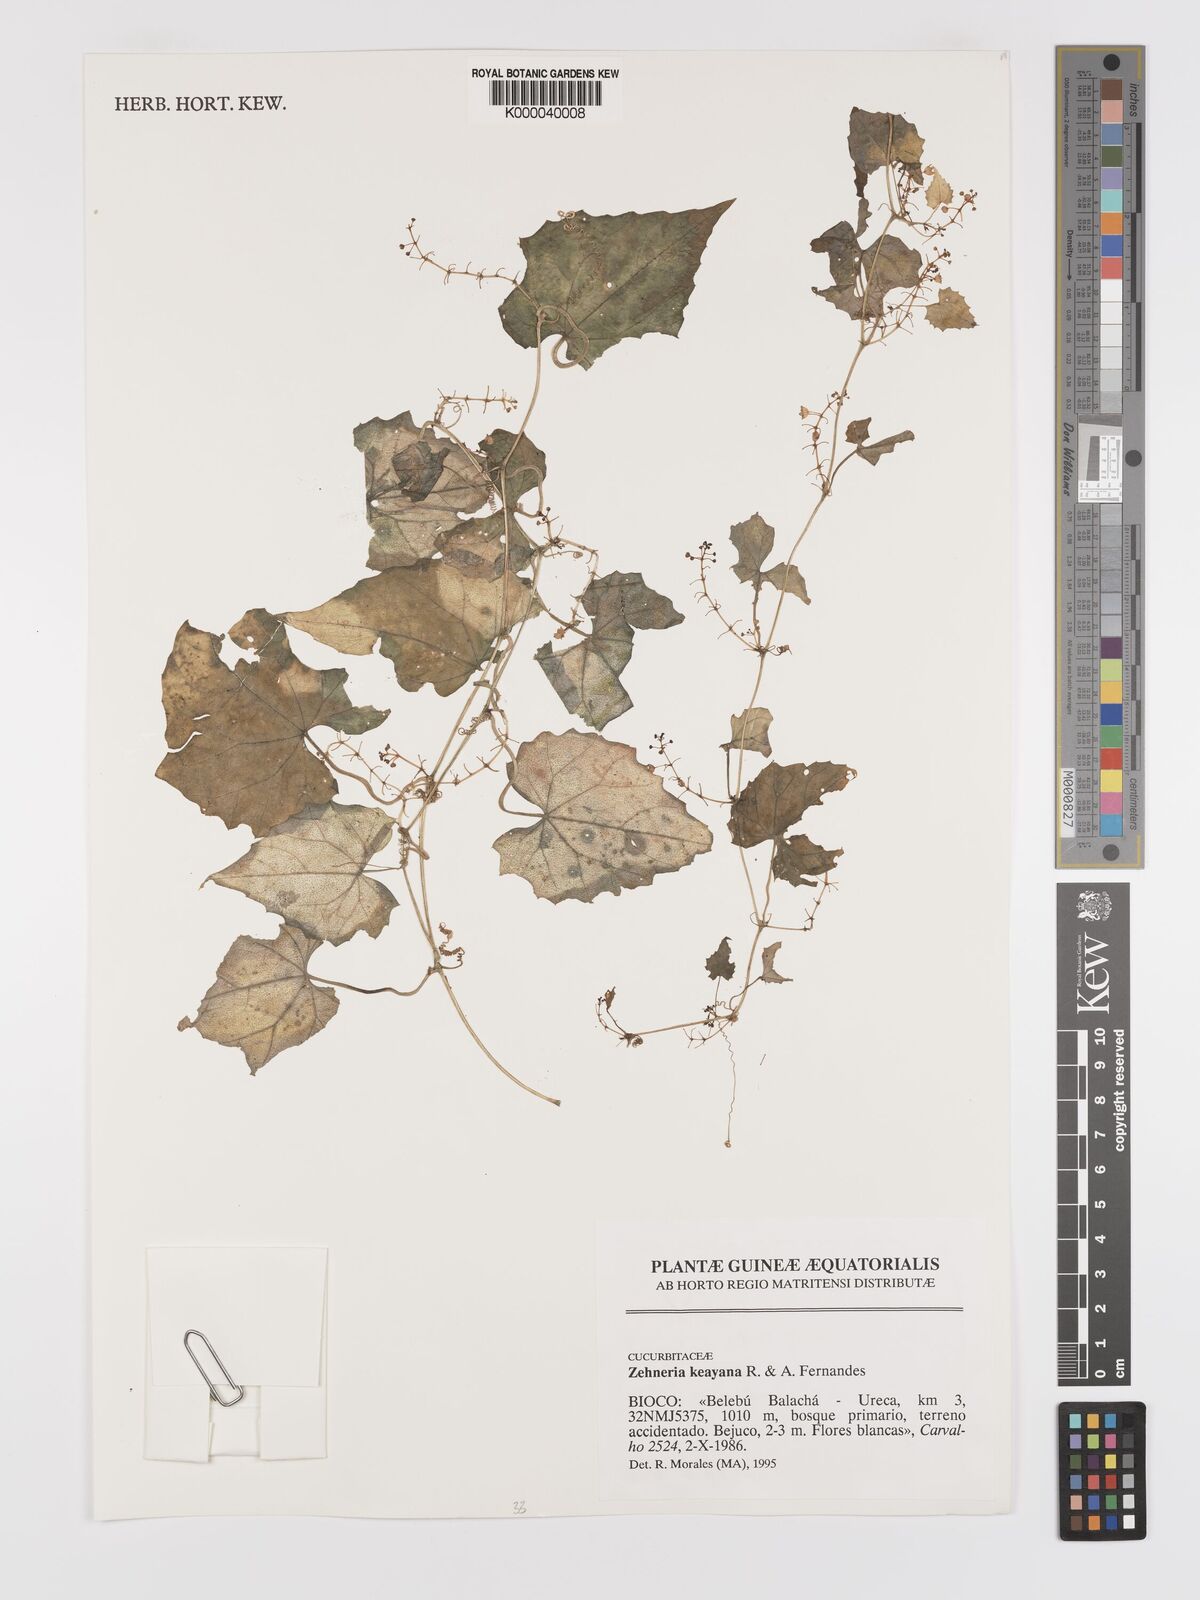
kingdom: Plantae
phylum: Tracheophyta
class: Magnoliopsida
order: Cucurbitales
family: Cucurbitaceae
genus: Zehneria
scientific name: Zehneria keayana
